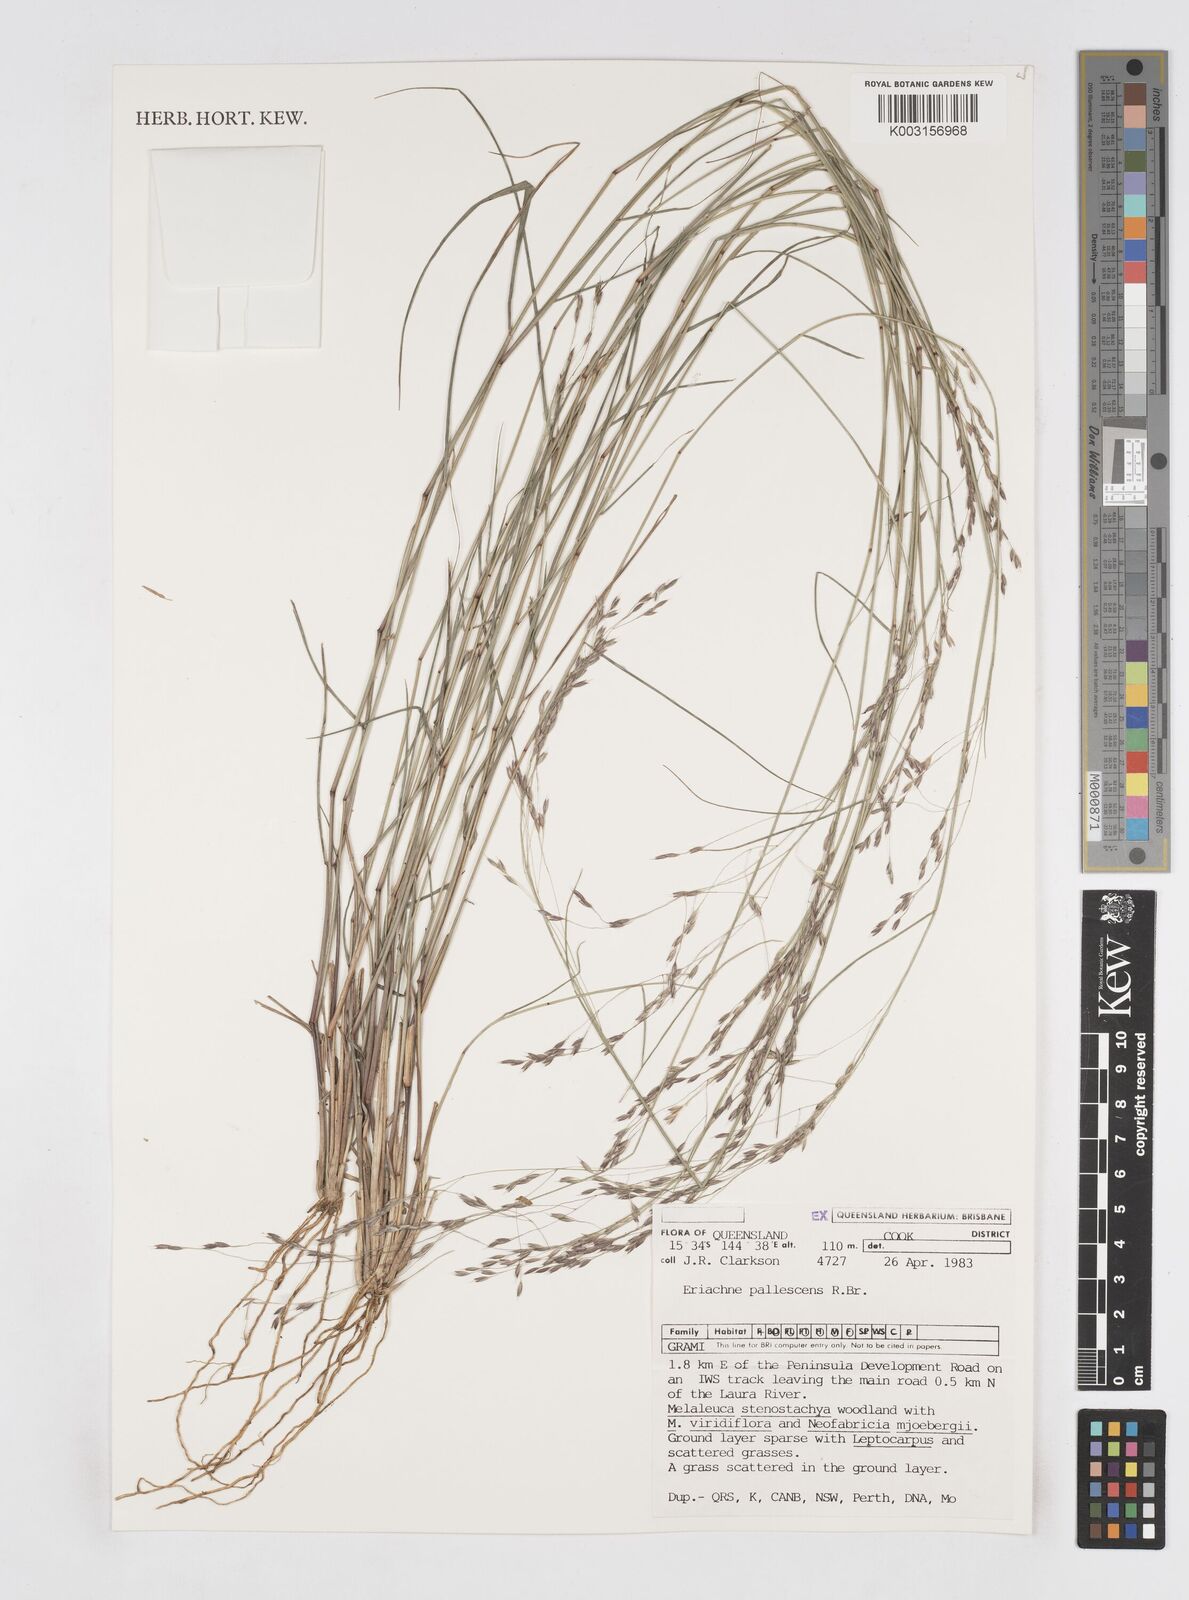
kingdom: Plantae
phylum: Tracheophyta
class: Liliopsida
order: Poales
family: Poaceae
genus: Eriachne
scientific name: Eriachne pallescens
